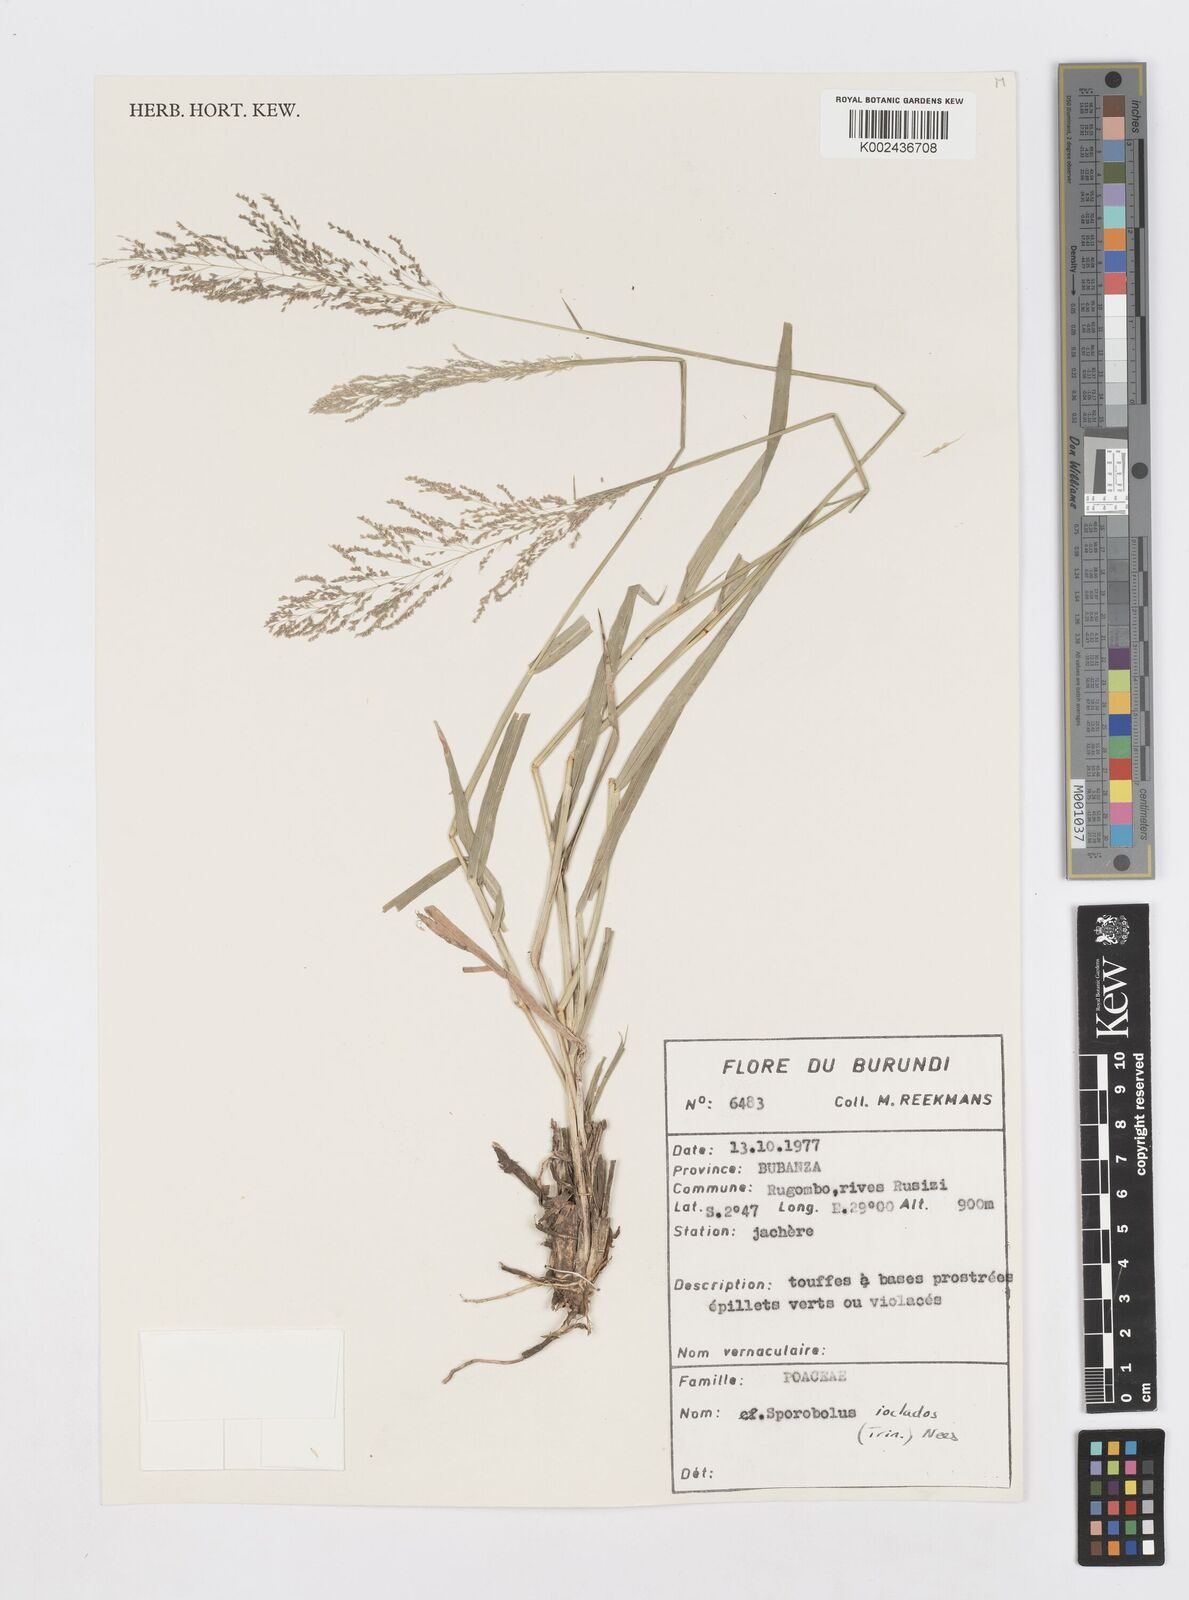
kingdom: Plantae
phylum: Tracheophyta
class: Liliopsida
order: Poales
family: Poaceae
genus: Sporobolus
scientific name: Sporobolus ioclados
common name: Pan dropseed
